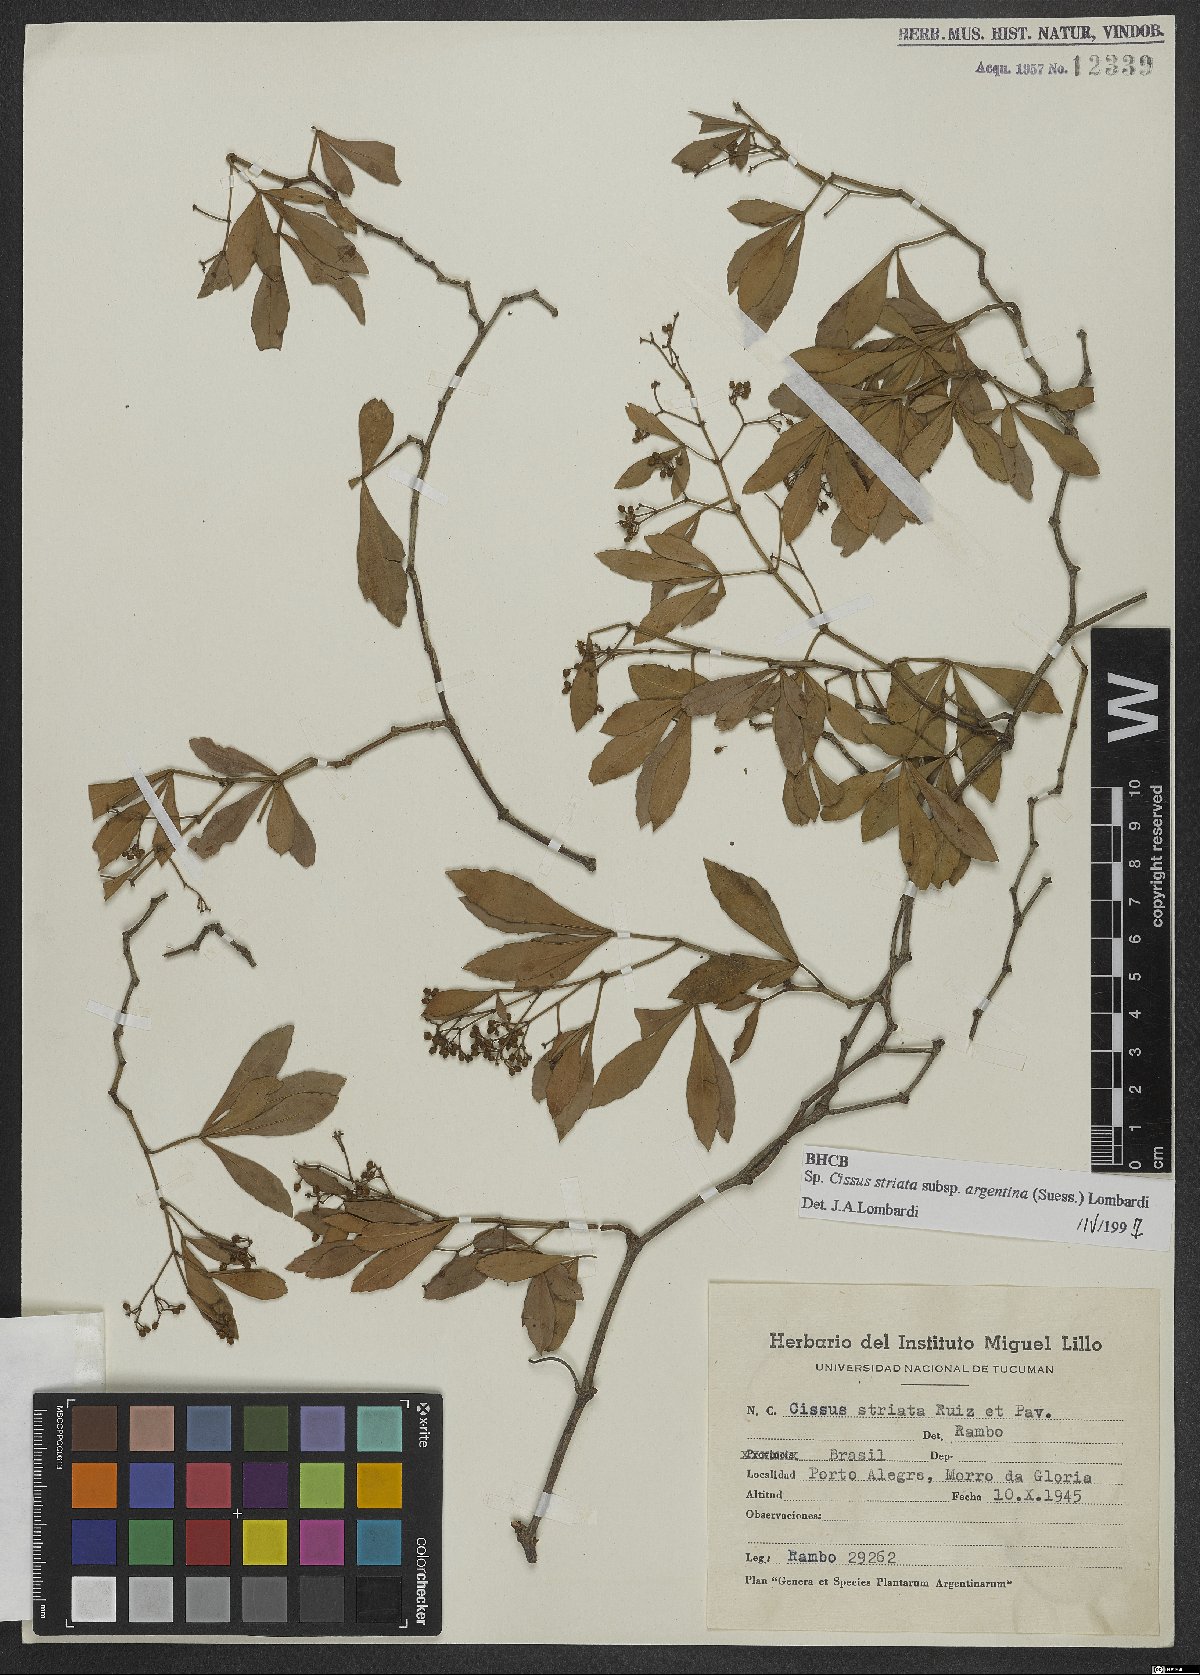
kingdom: Plantae
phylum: Tracheophyta
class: Magnoliopsida
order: Vitales
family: Vitaceae
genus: Clematicissus
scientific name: Clematicissus striata
